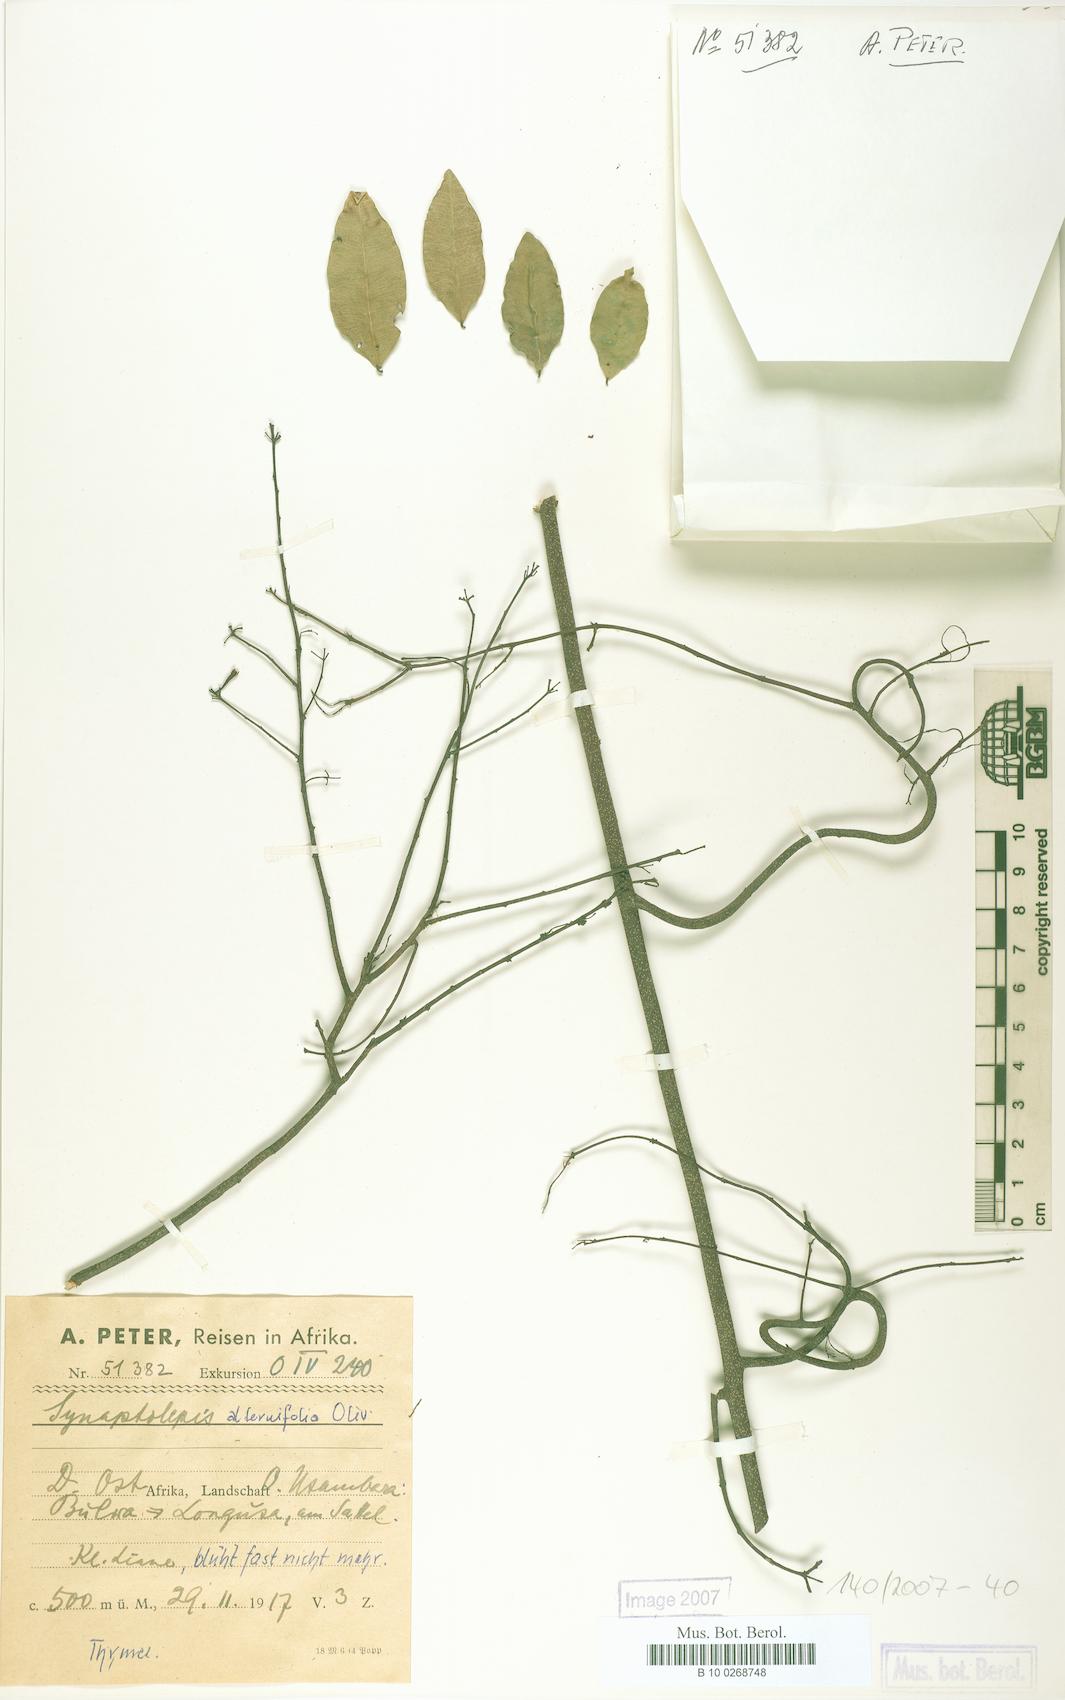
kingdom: Plantae
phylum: Tracheophyta
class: Magnoliopsida
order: Malvales
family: Thymelaeaceae
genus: Synaptolepis
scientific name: Synaptolepis alternifolia
